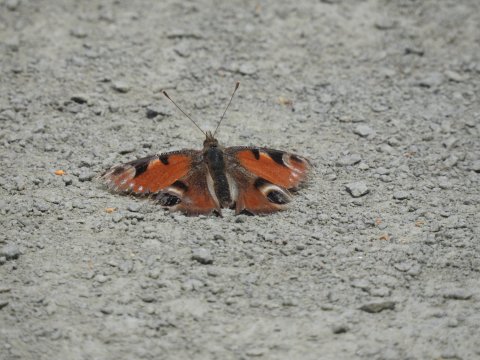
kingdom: Animalia
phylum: Arthropoda
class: Insecta
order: Lepidoptera
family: Nymphalidae
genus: Aglais
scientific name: Aglais io
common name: European Peacock
